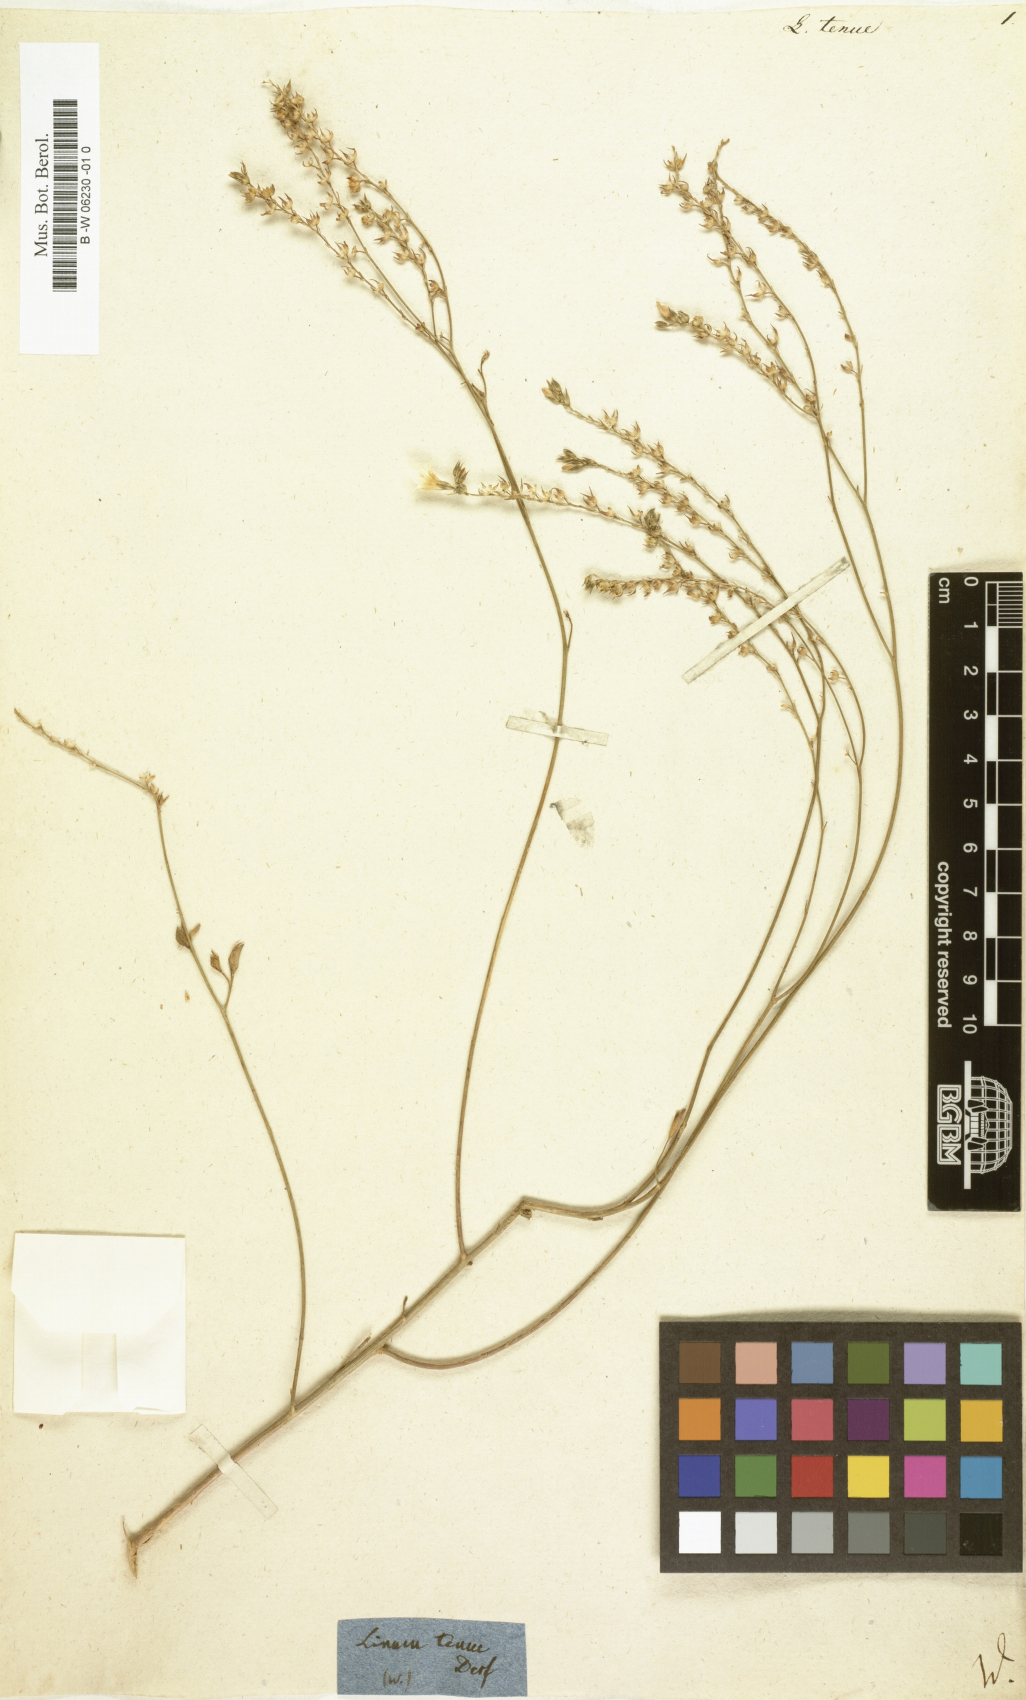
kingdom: Plantae
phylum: Tracheophyta
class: Magnoliopsida
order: Malpighiales
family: Linaceae
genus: Linum
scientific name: Linum tenue
